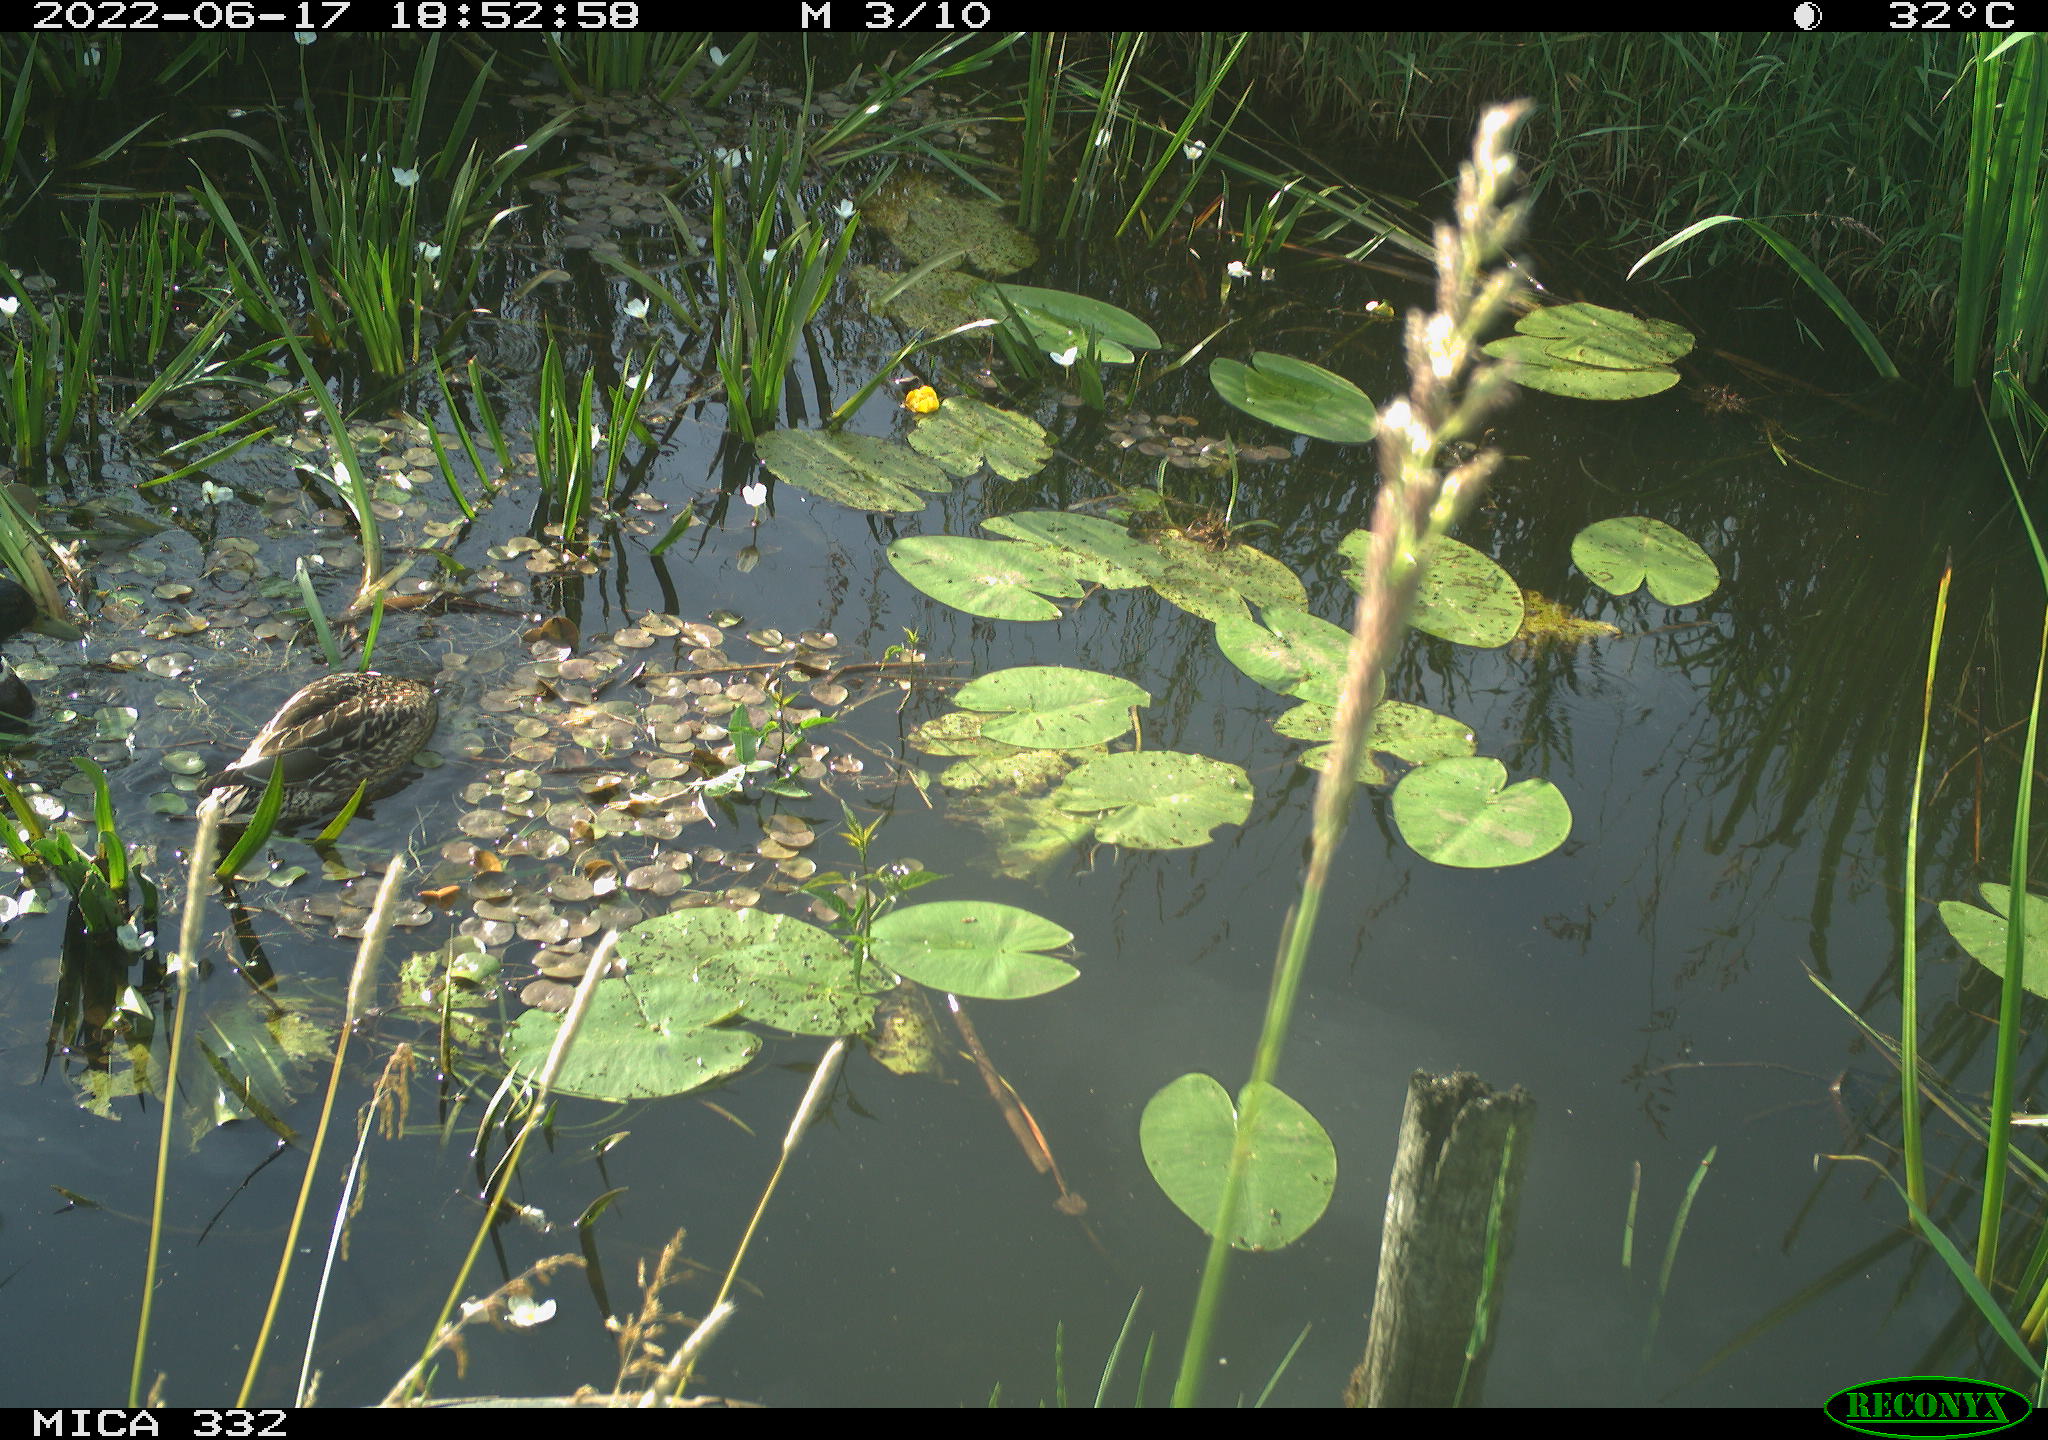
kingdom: Animalia
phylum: Chordata
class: Aves
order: Anseriformes
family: Anatidae
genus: Anas
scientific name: Anas platyrhynchos
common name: Mallard
